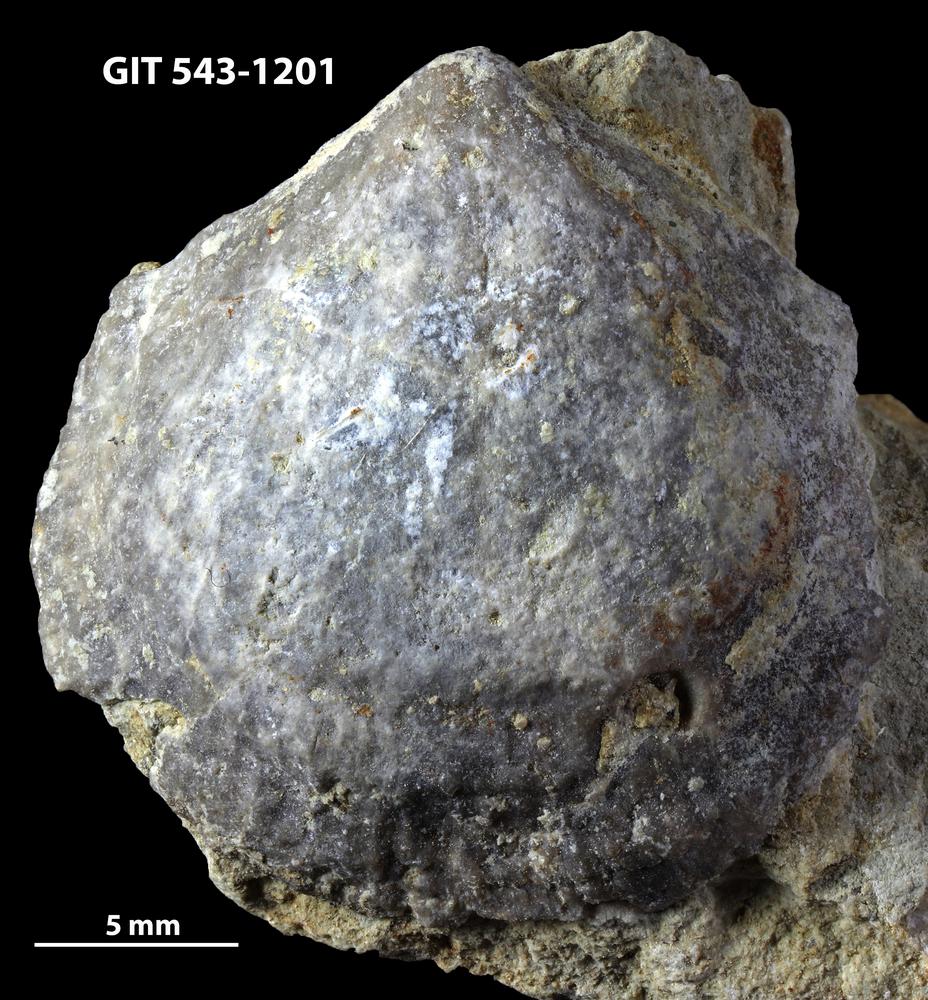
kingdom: Animalia
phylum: Brachiopoda
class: Rhynchonellata
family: Clitambonitidae
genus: Vellamo
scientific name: Vellamo
